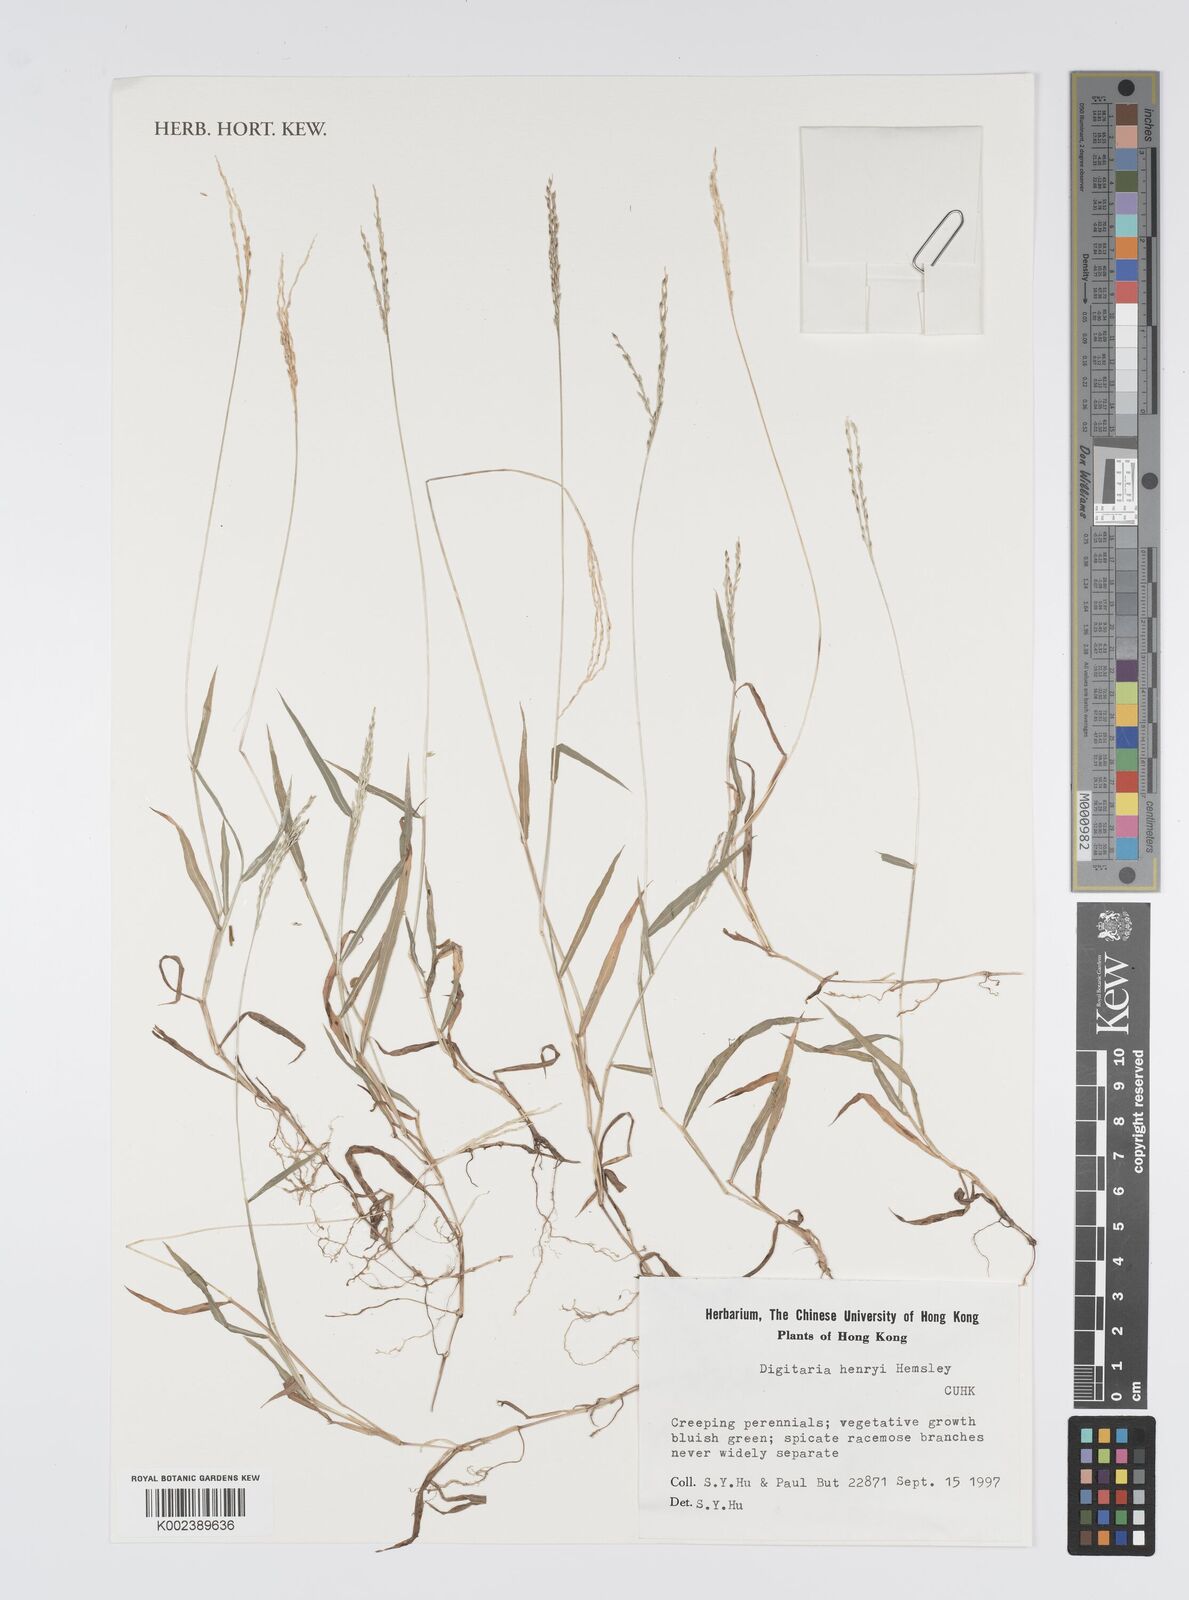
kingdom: Plantae
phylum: Tracheophyta
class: Liliopsida
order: Poales
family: Poaceae
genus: Digitaria
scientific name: Digitaria ciliaris
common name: Tropical finger-grass
